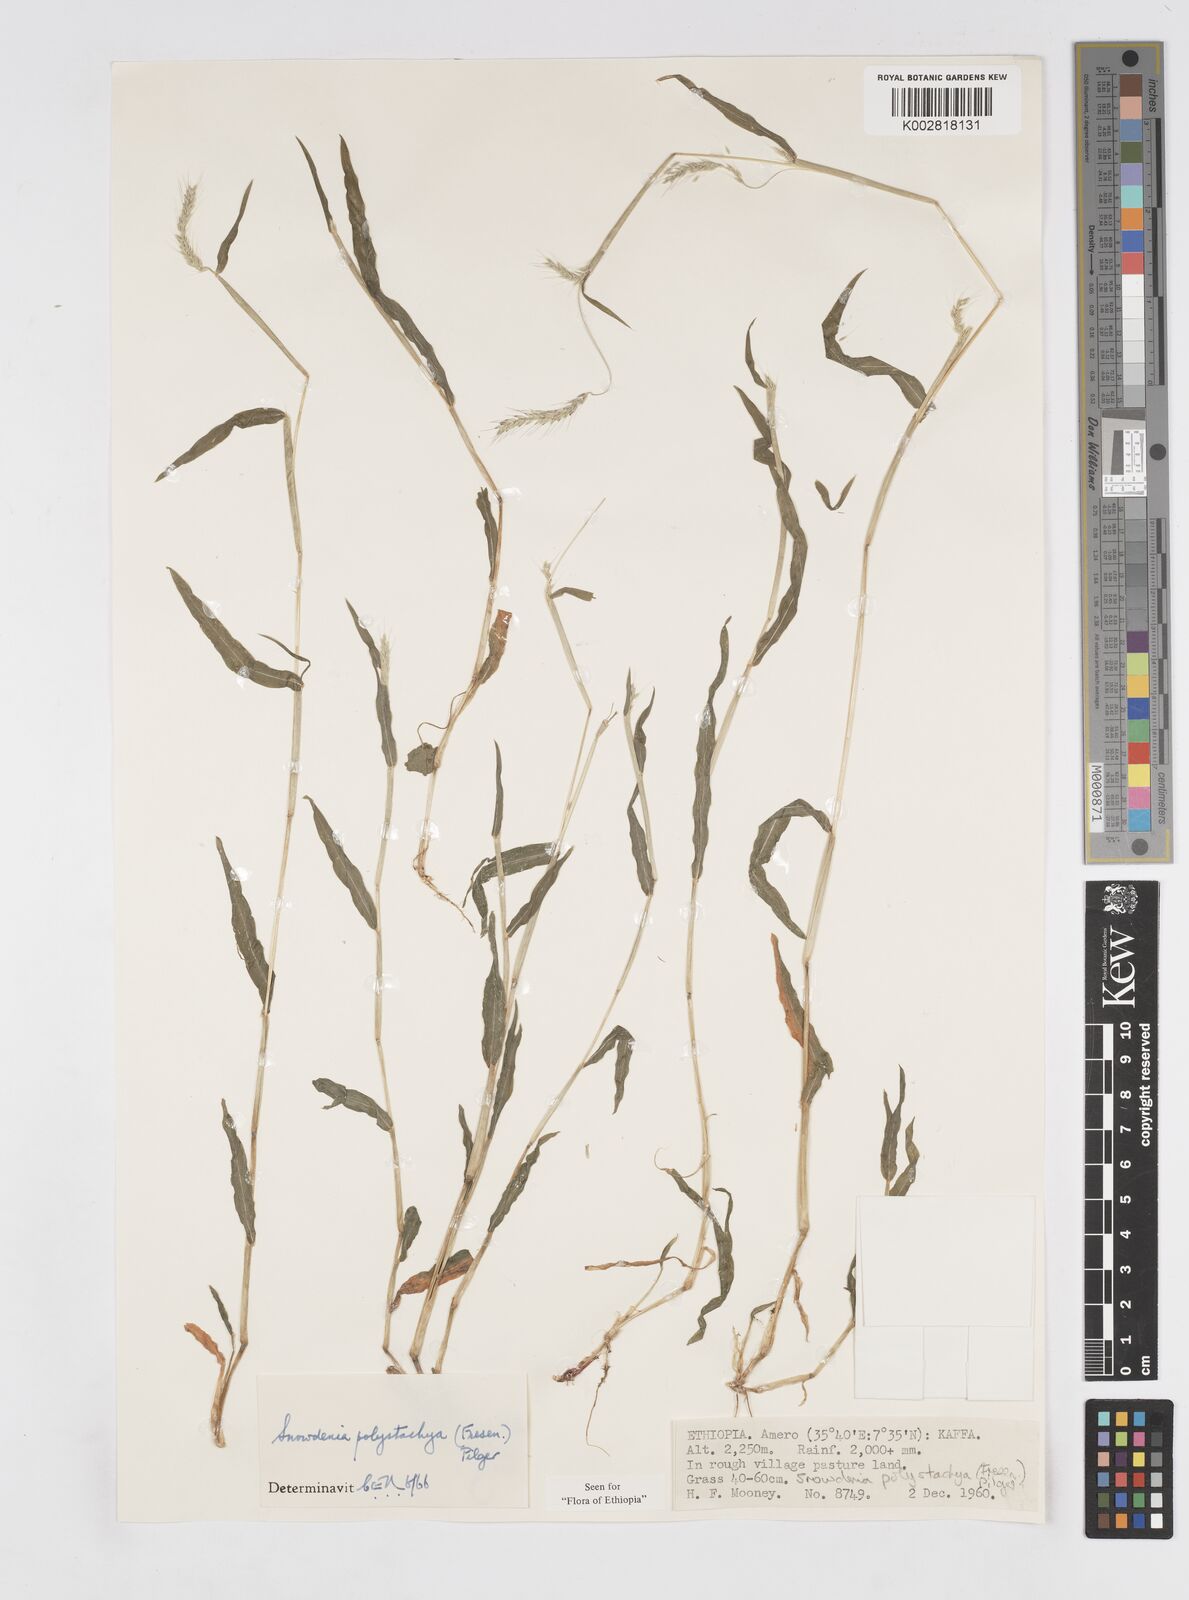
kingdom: Plantae
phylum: Tracheophyta
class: Liliopsida
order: Poales
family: Poaceae
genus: Snowdenia
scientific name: Snowdenia polystachya
